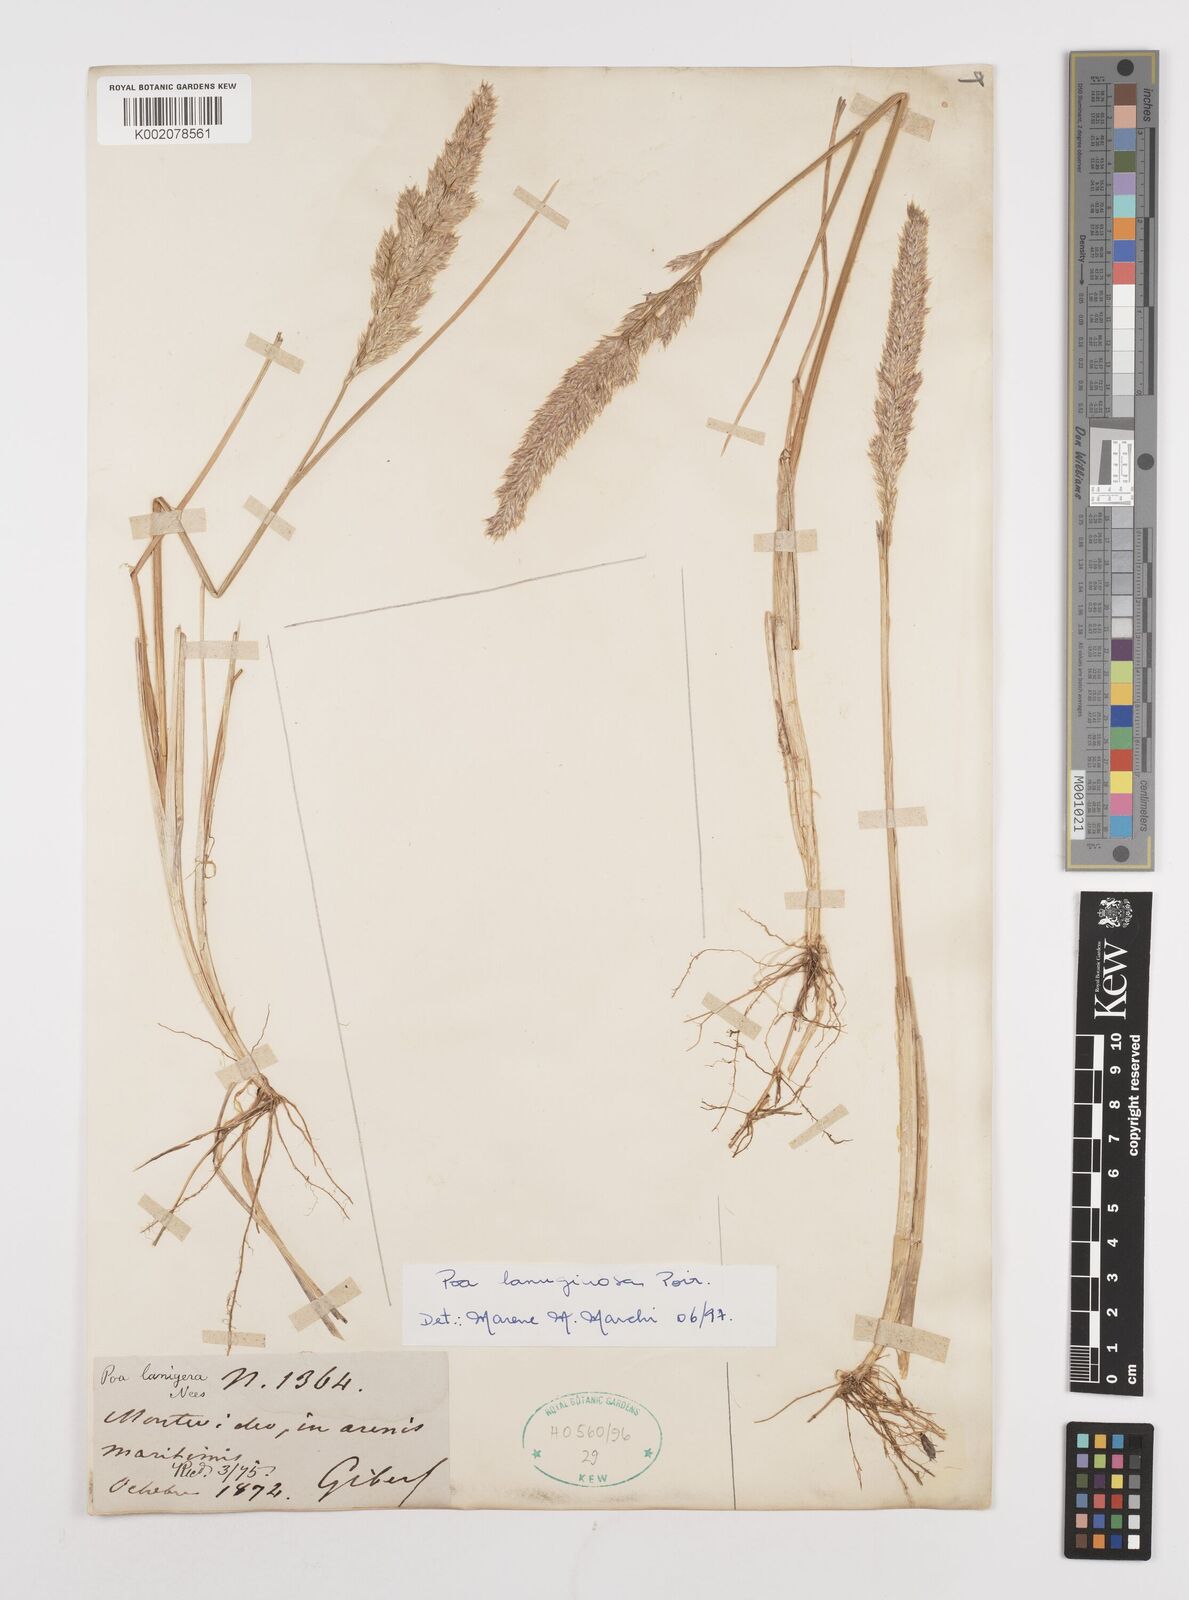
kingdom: Plantae
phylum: Tracheophyta
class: Liliopsida
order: Poales
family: Poaceae
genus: Poa
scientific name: Poa lanuginosa
